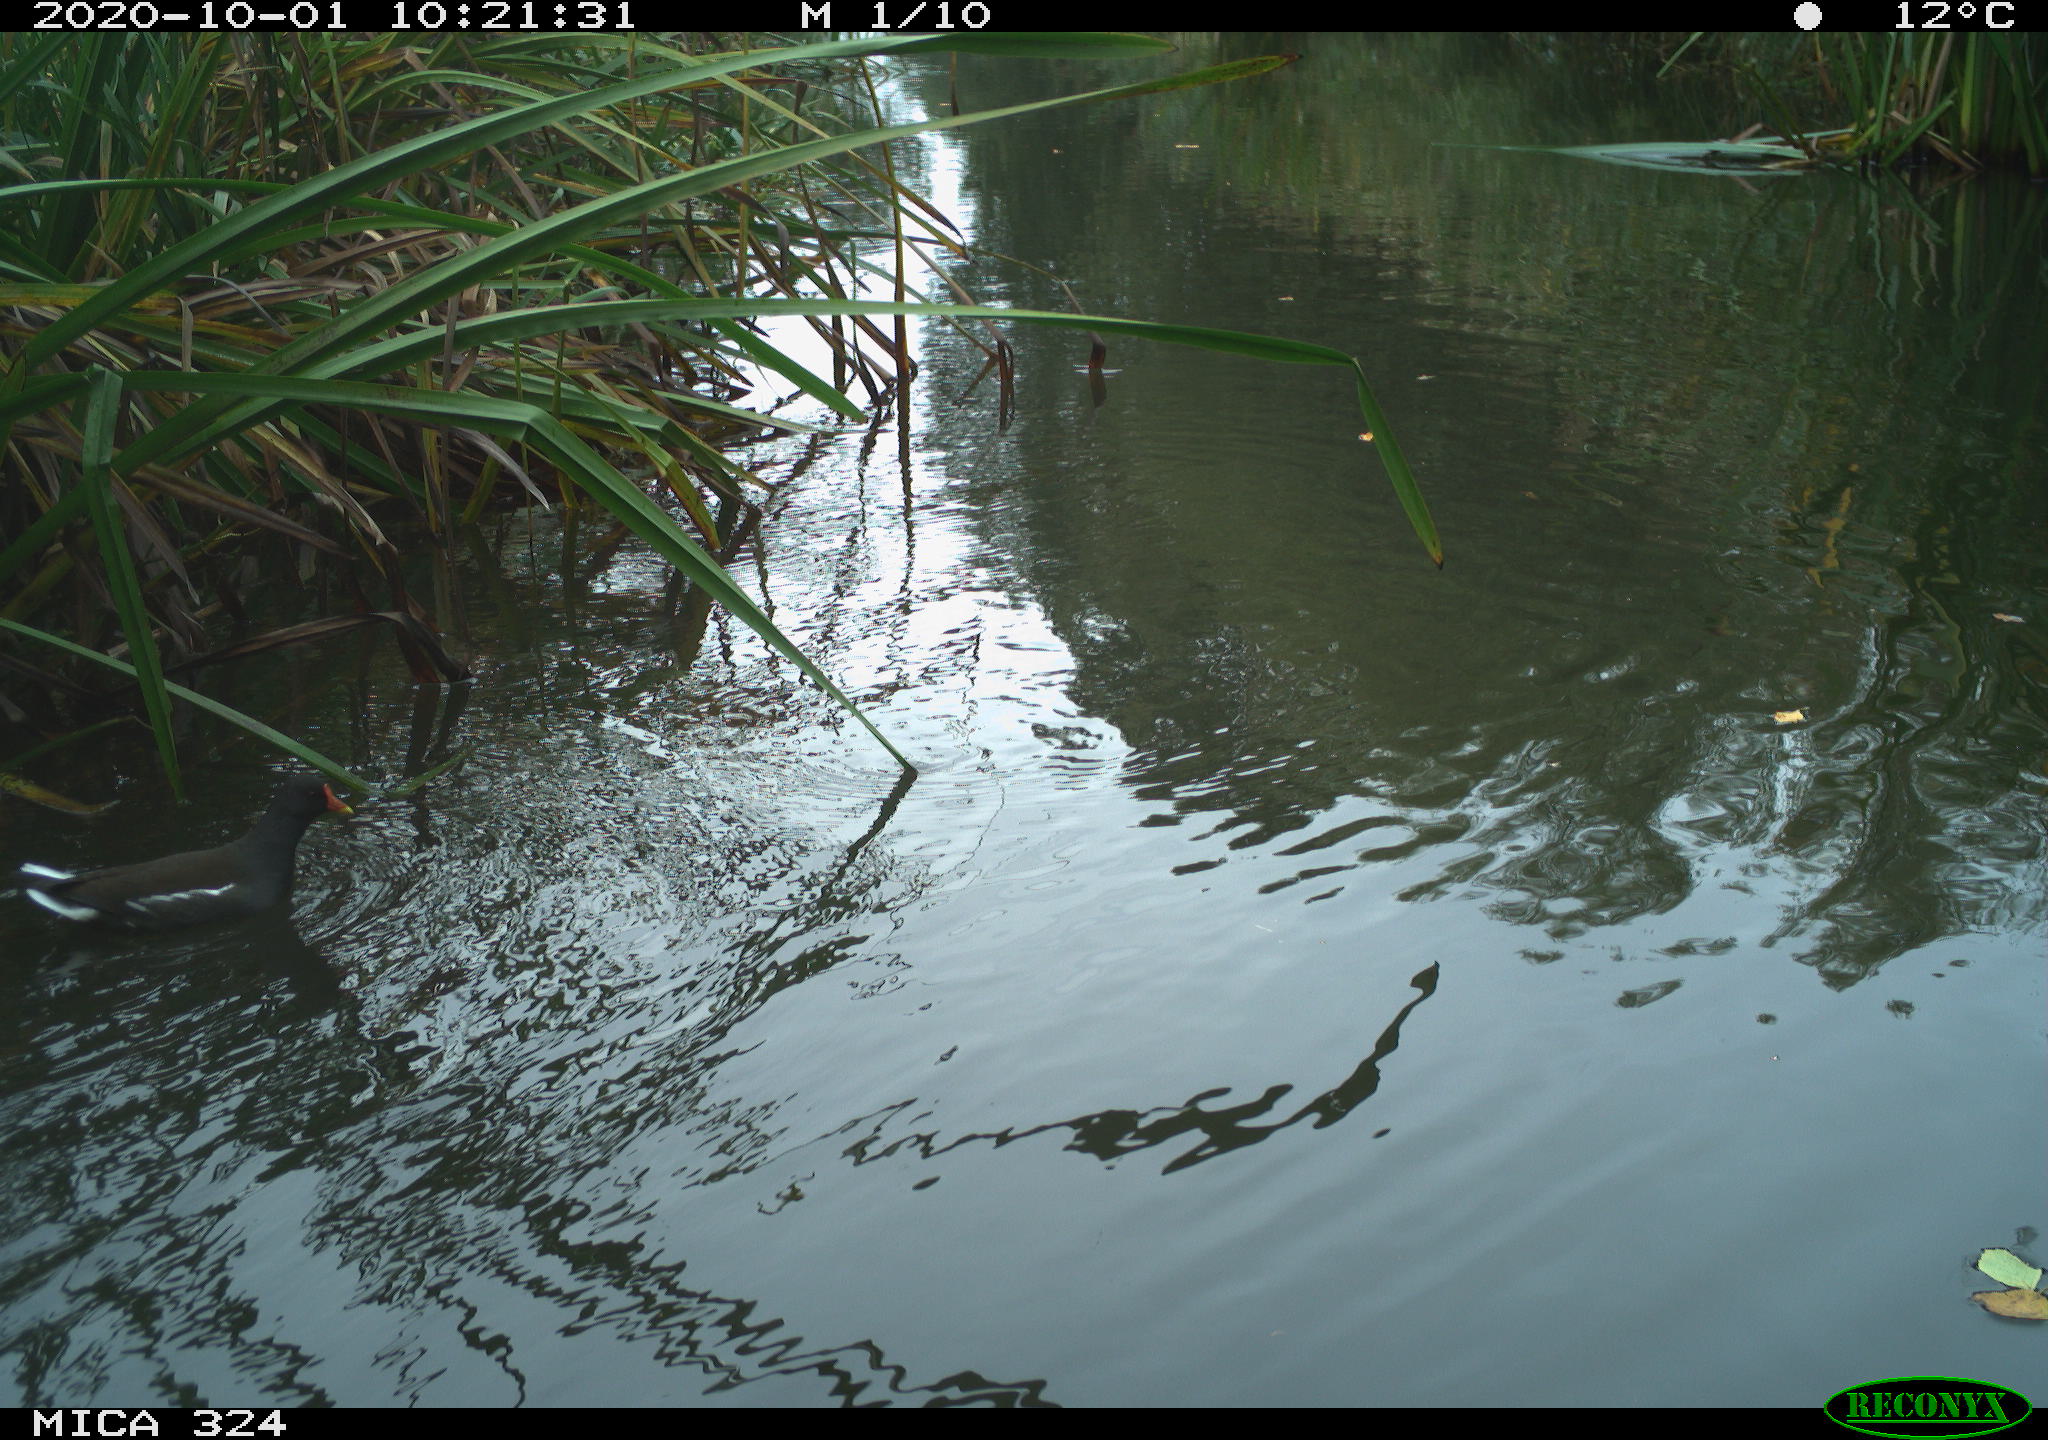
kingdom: Animalia
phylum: Chordata
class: Aves
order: Gruiformes
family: Rallidae
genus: Gallinula
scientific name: Gallinula chloropus
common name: Common moorhen
